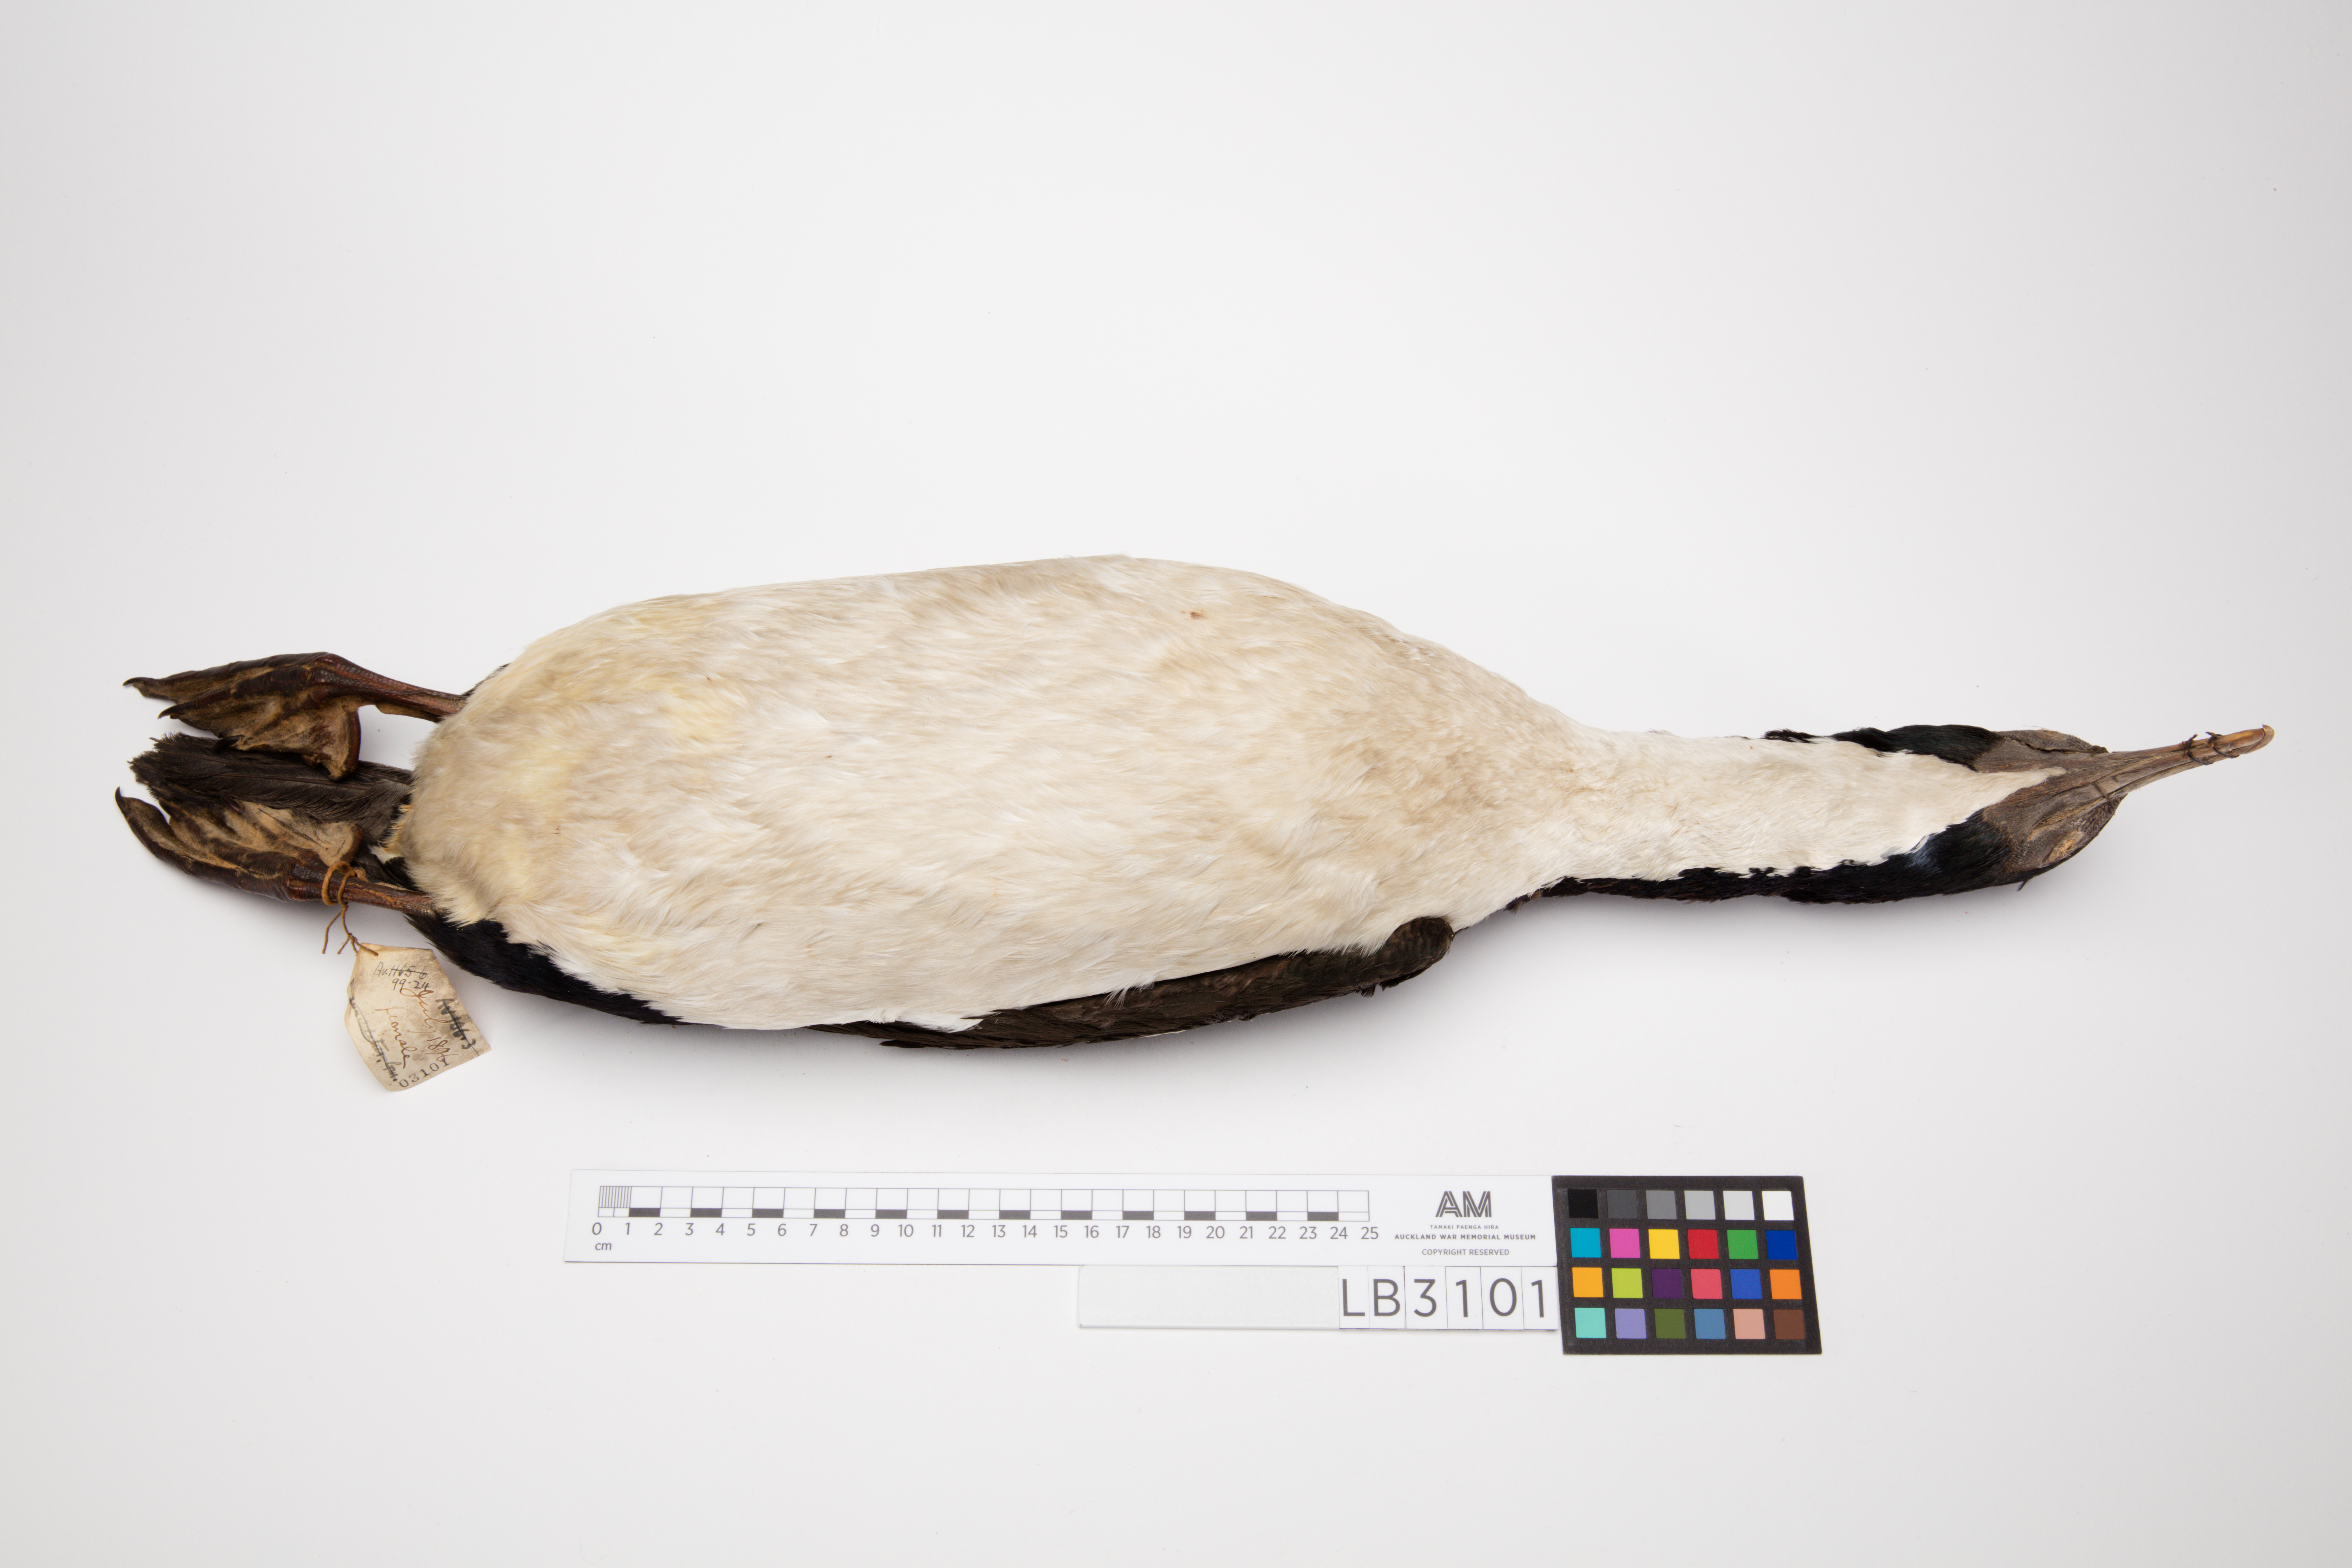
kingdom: Animalia
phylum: Chordata
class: Aves
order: Suliformes
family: Phalacrocoracidae
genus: Leucocarbo
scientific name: Leucocarbo chalconotus
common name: Stewart shag
